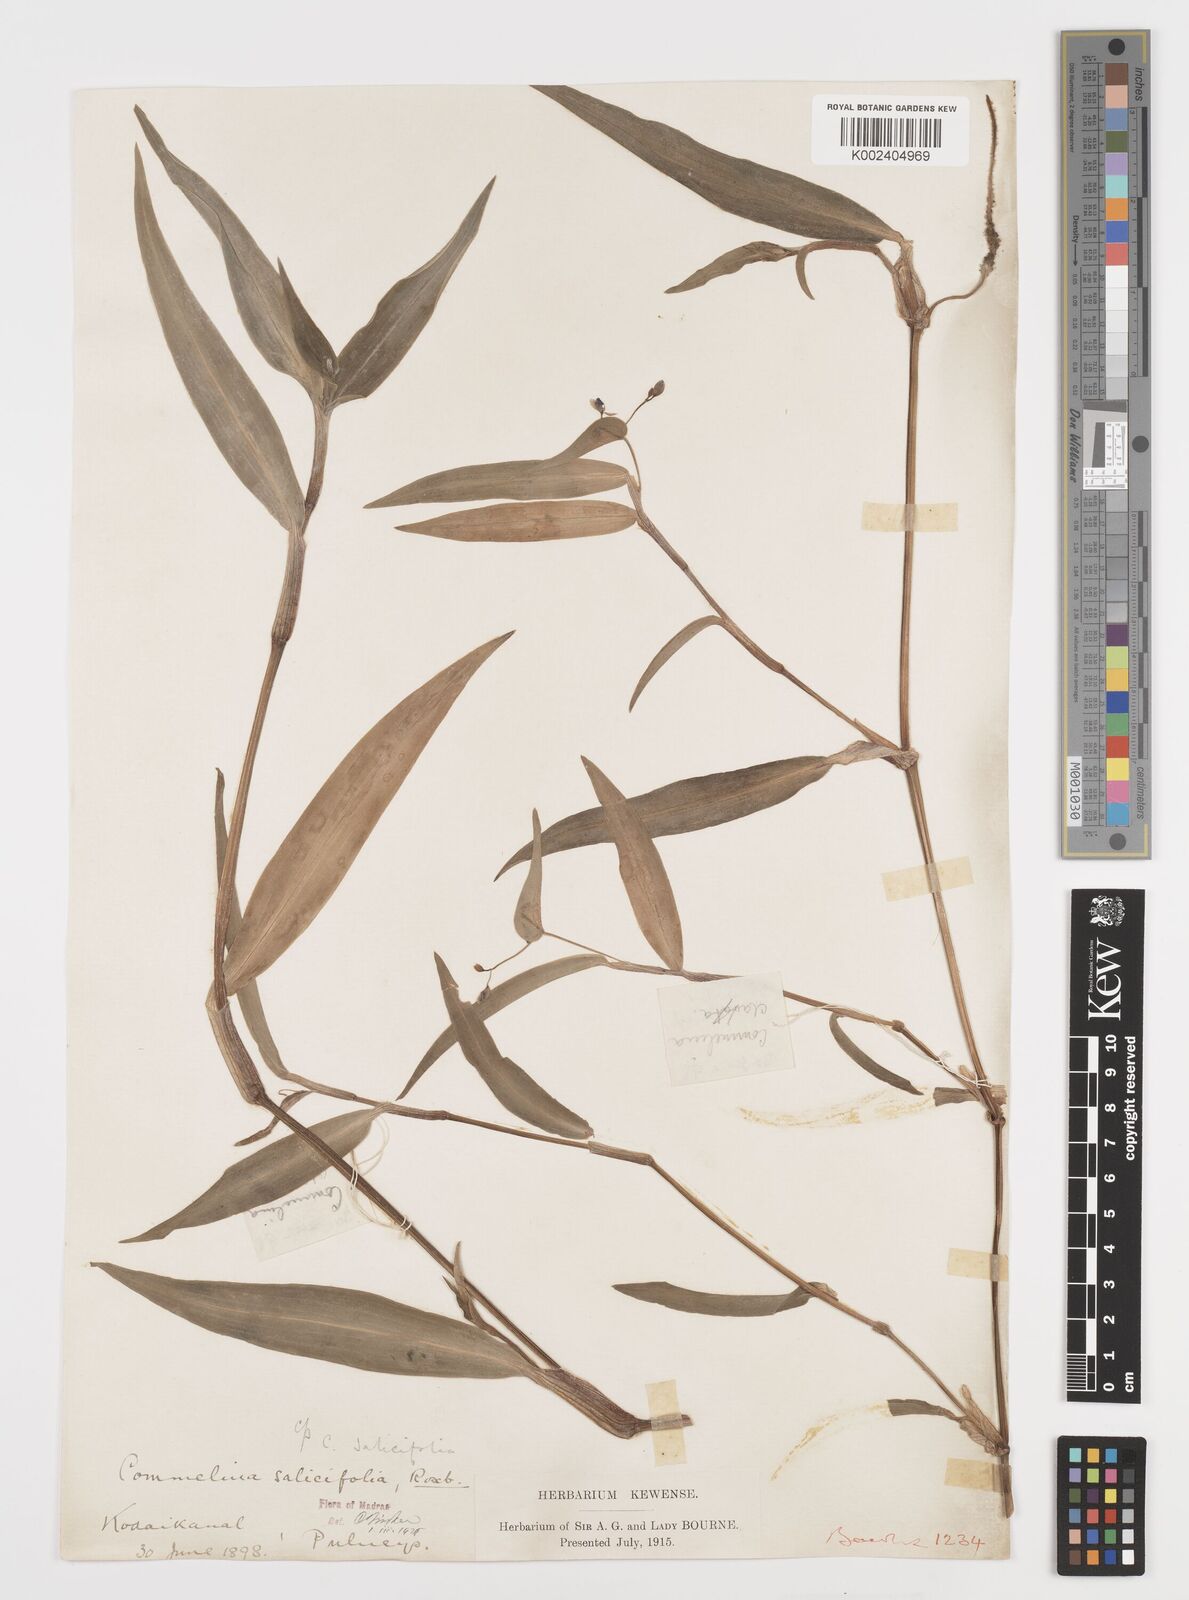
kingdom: Plantae
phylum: Tracheophyta
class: Liliopsida
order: Commelinales
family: Commelinaceae
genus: Commelina
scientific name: Commelina undulata
